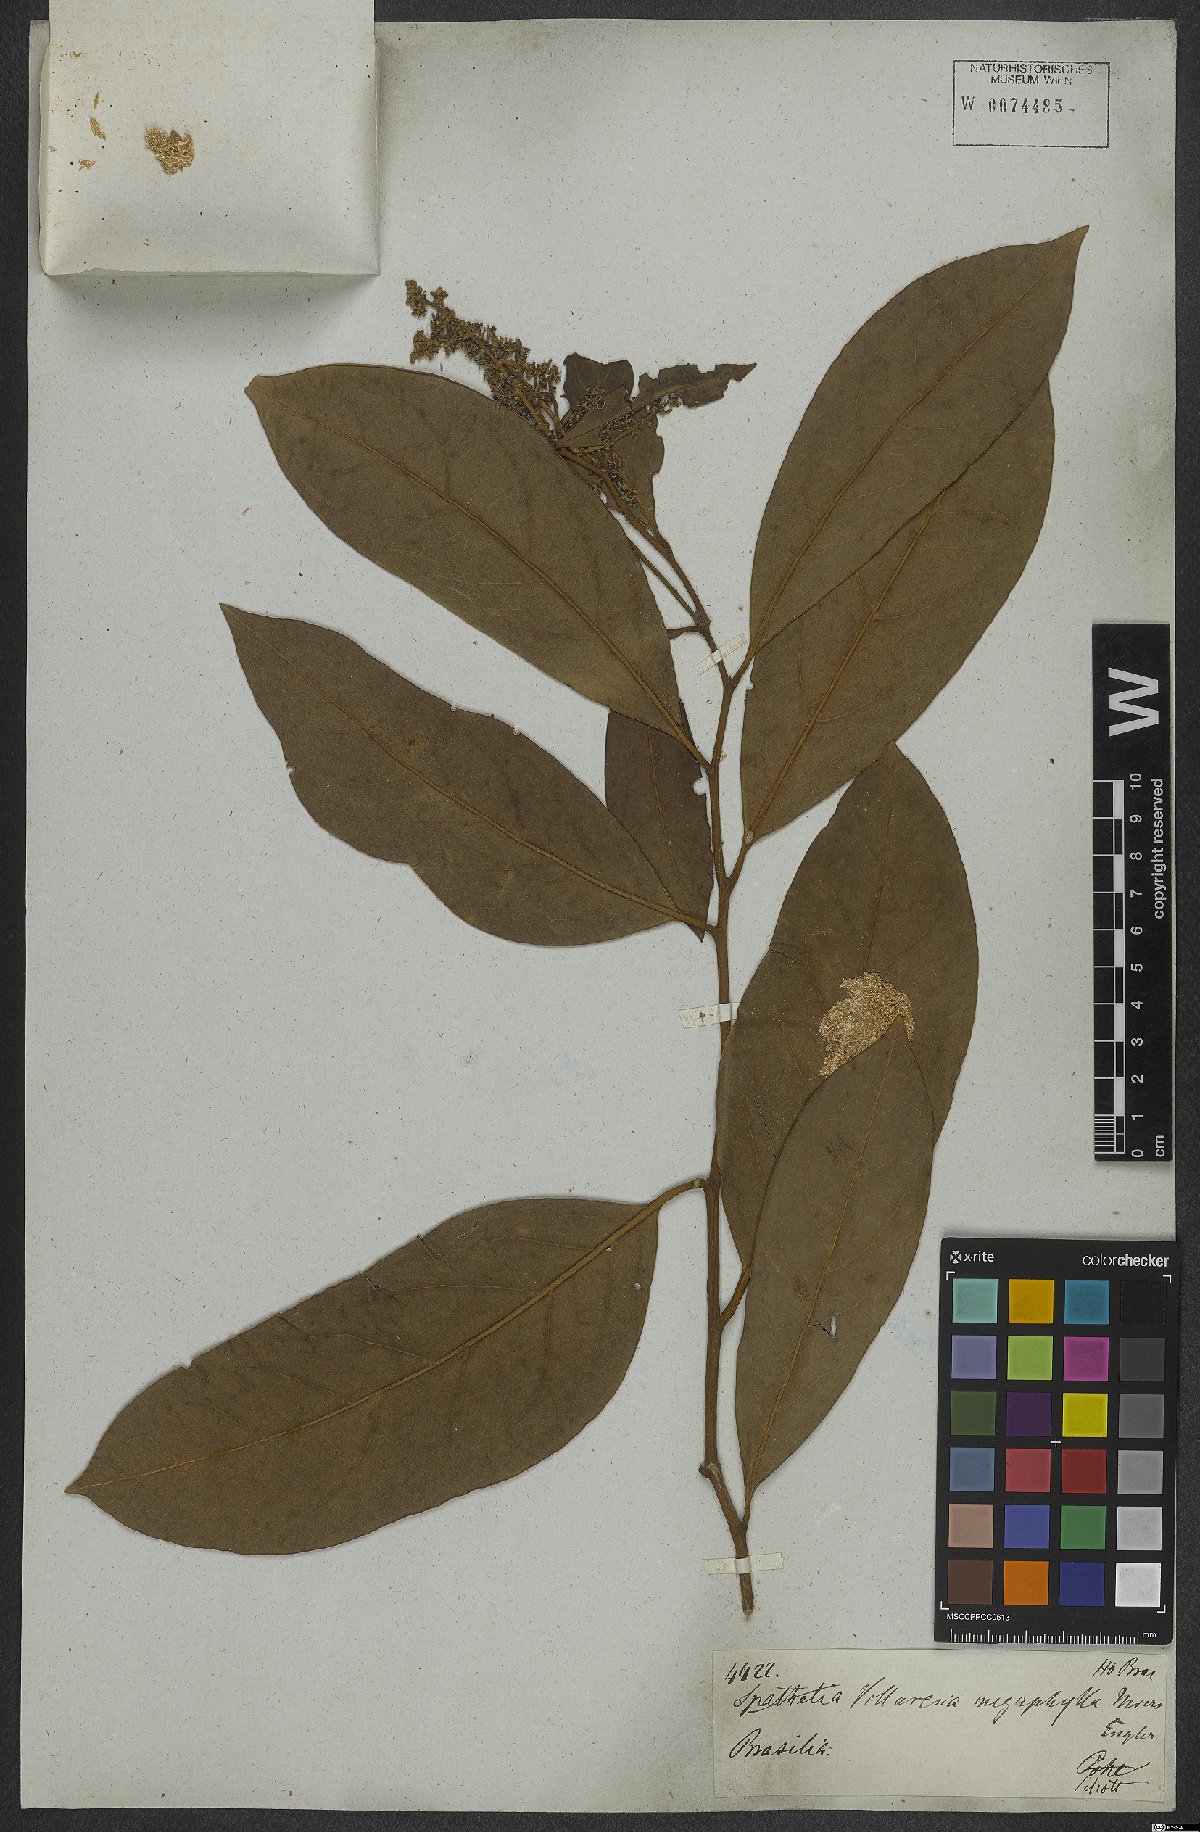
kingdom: Plantae
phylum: Tracheophyta
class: Magnoliopsida
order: Cardiopteridales
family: Cardiopteridaceae
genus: Citronella
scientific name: Citronella paniculata
